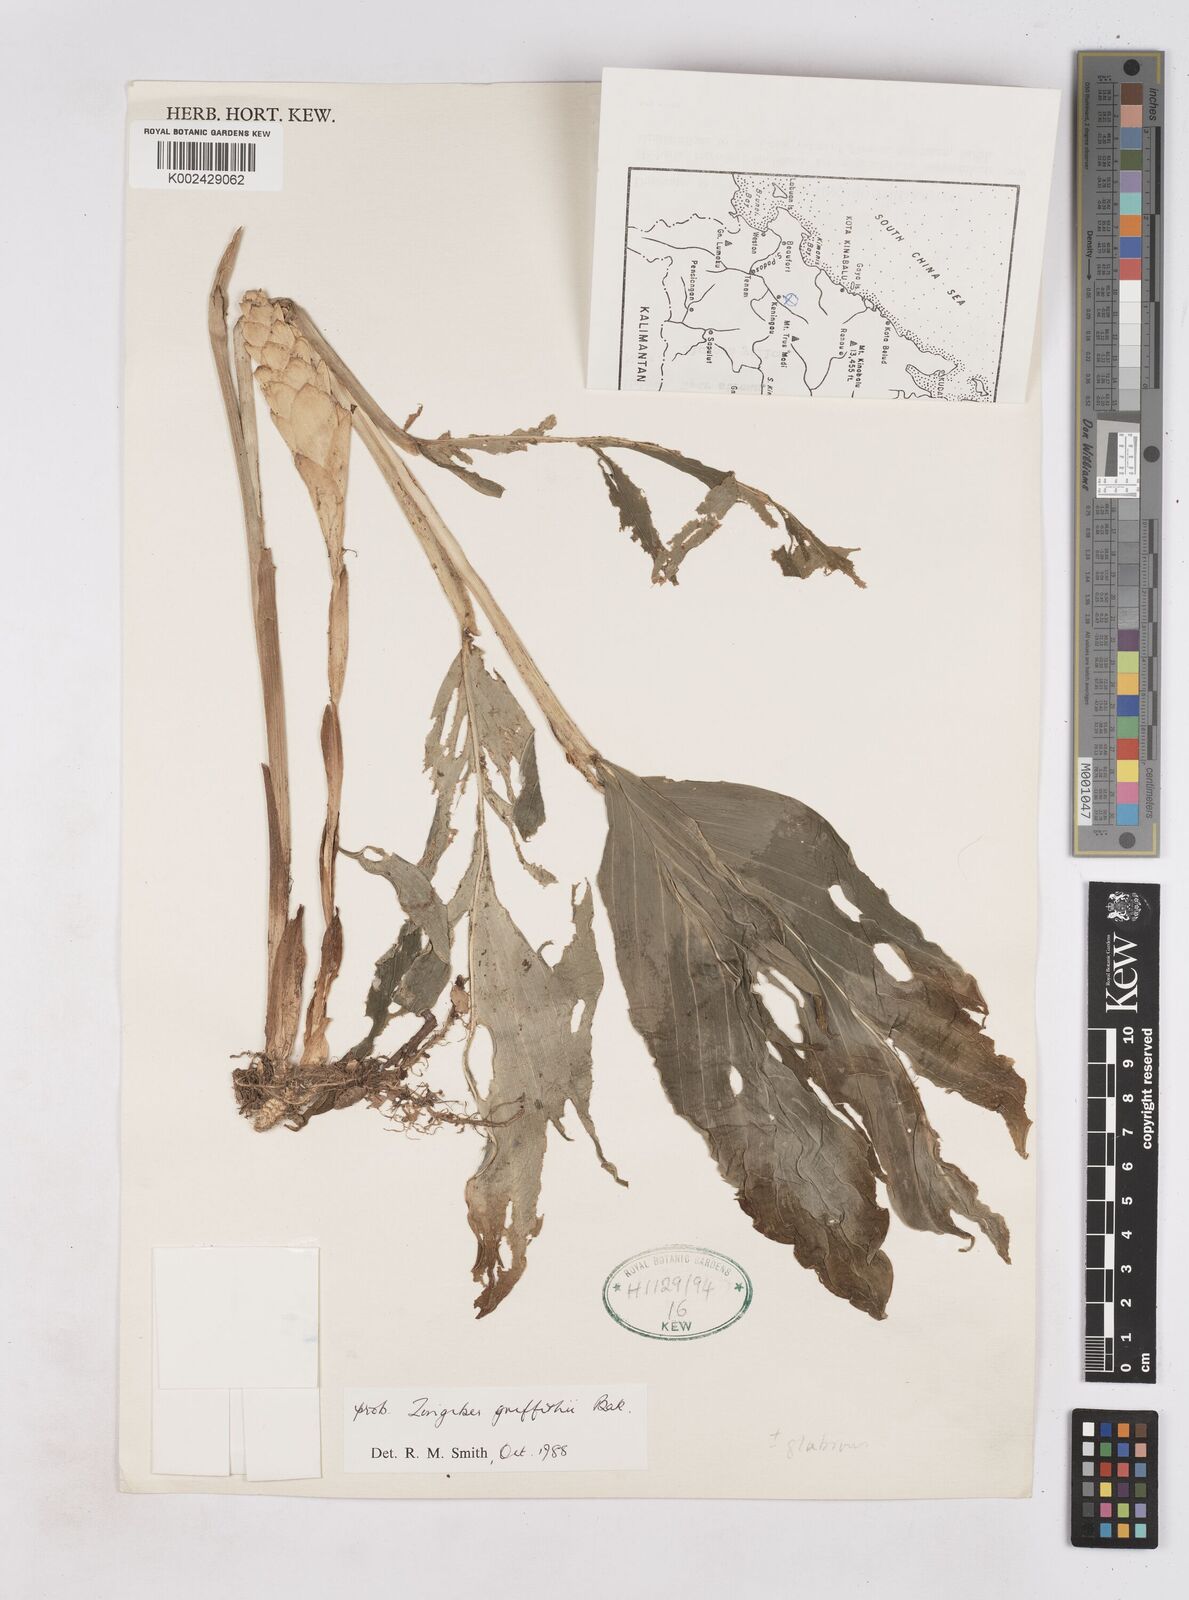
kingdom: Plantae
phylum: Tracheophyta
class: Liliopsida
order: Zingiberales
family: Zingiberaceae
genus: Zingiber
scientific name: Zingiber griffithii
